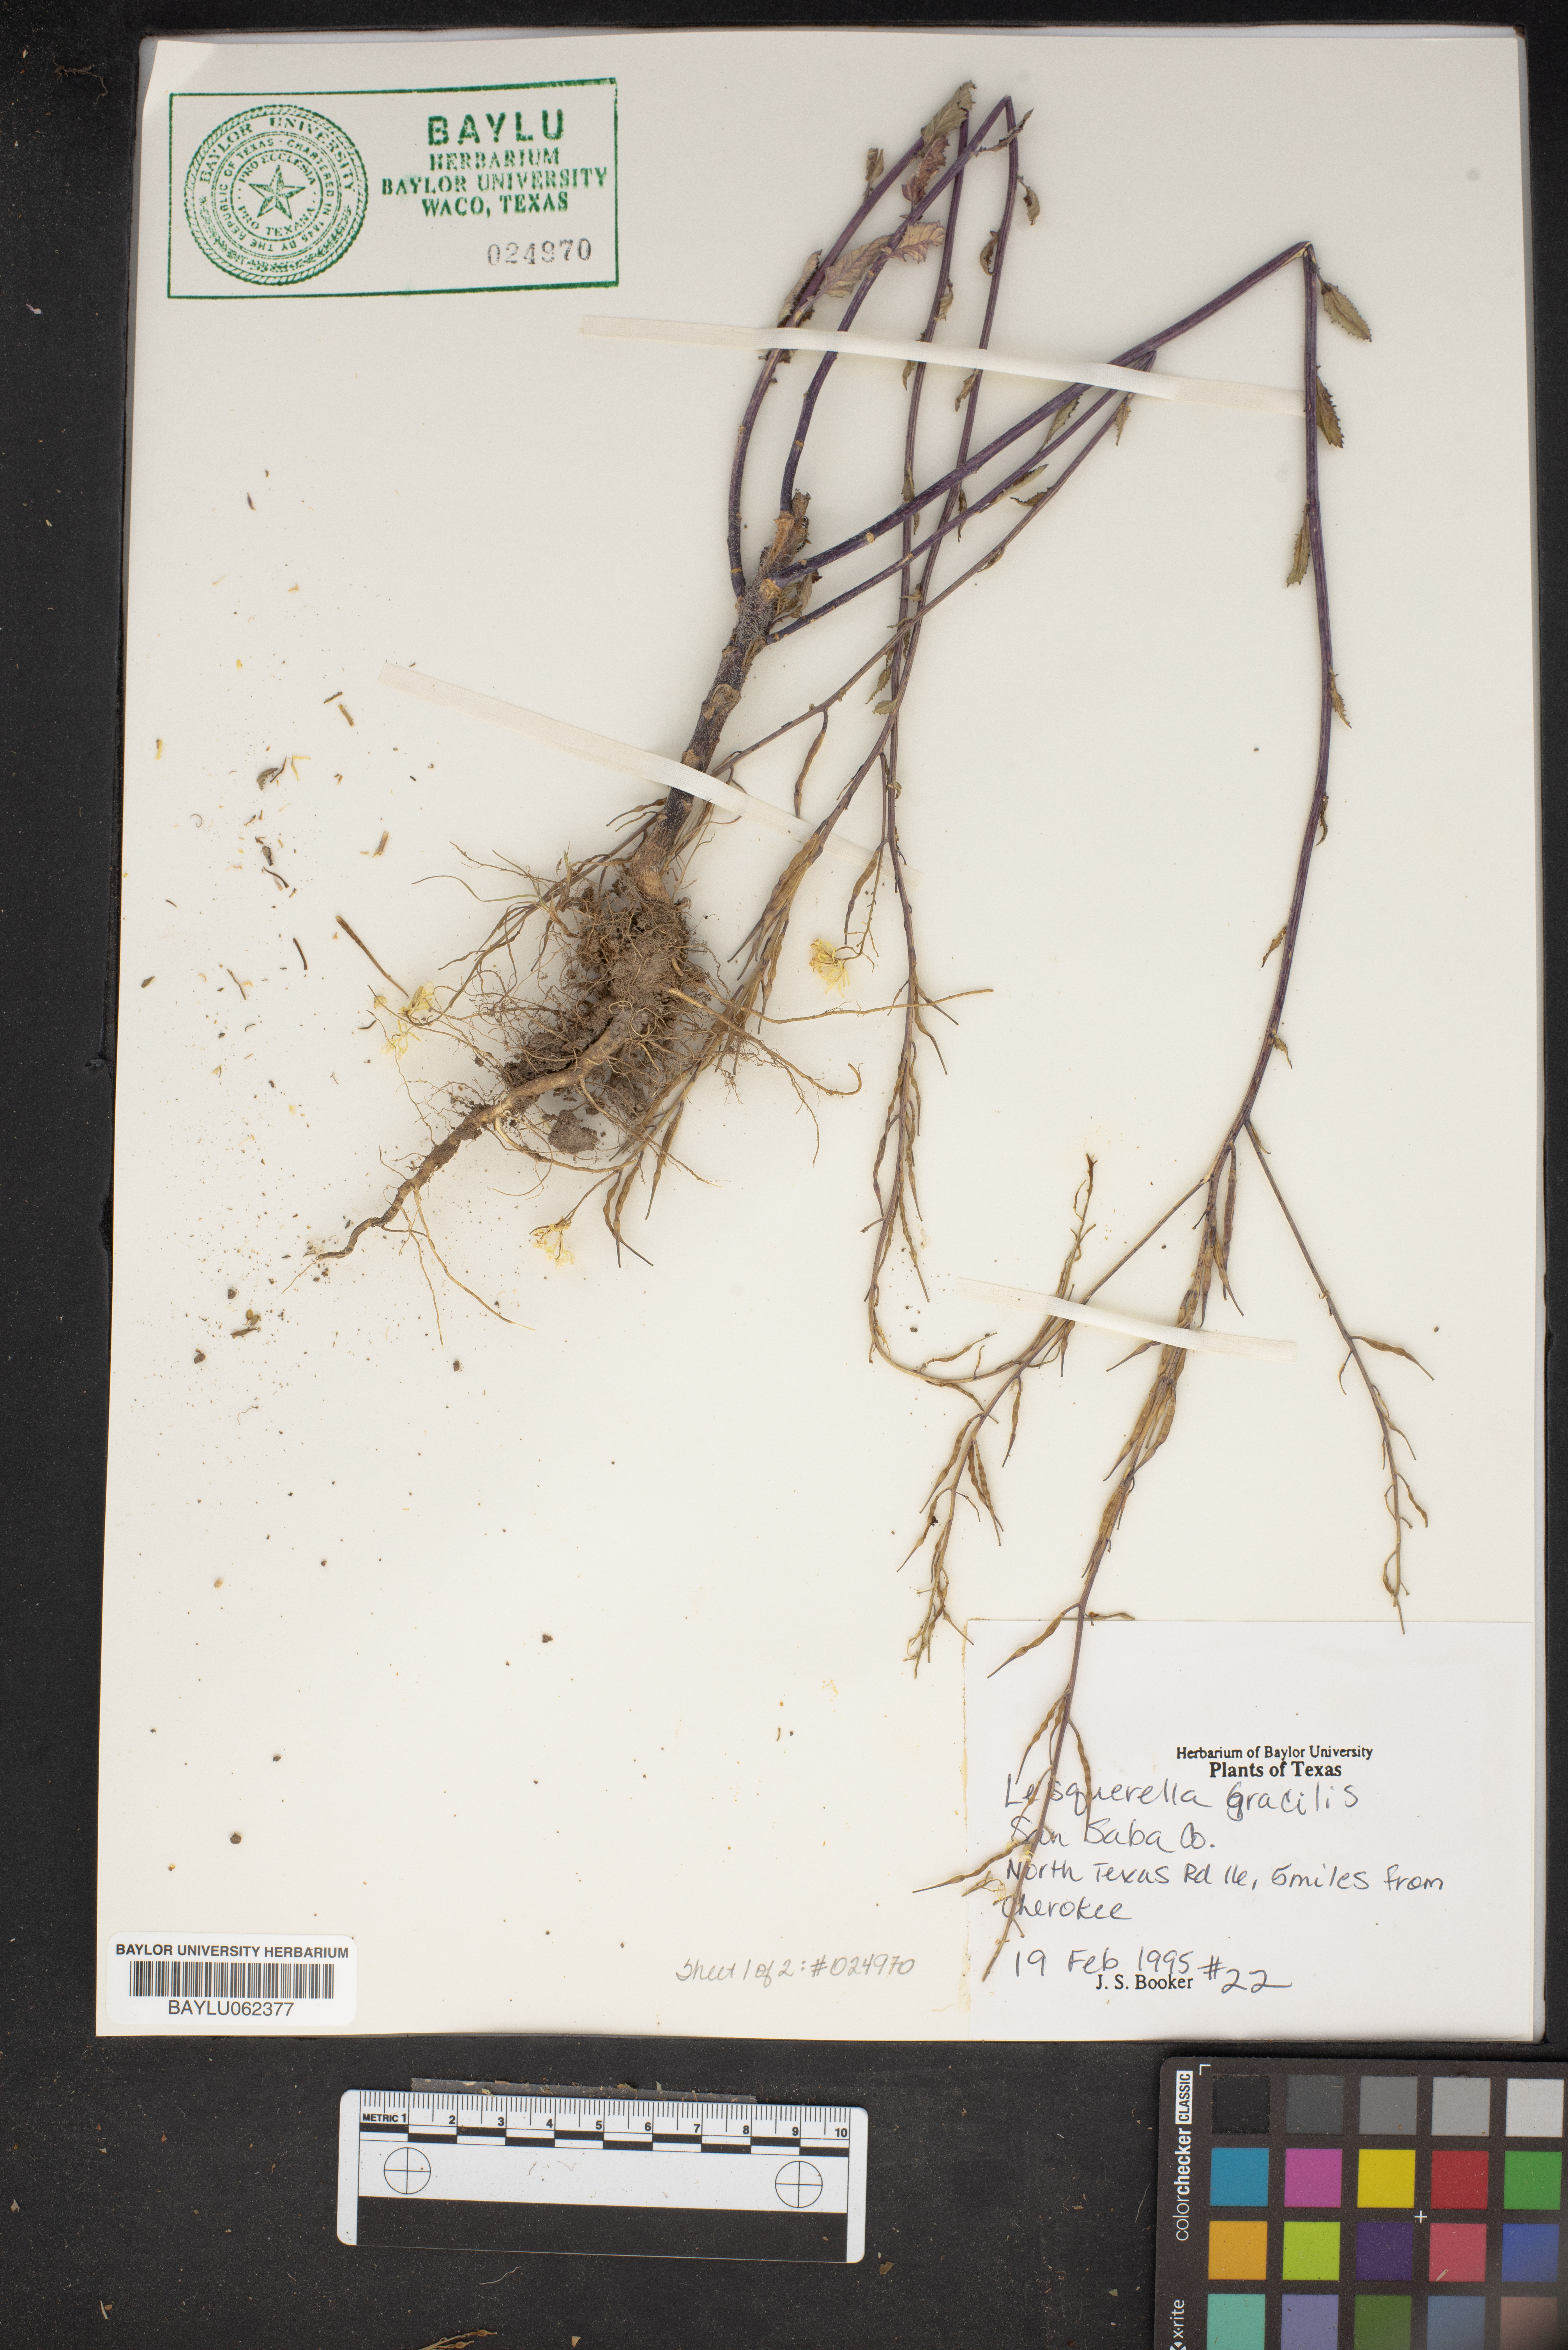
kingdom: Plantae
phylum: Tracheophyta
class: Magnoliopsida
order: Brassicales
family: Brassicaceae
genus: Physaria
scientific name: Physaria gracilis
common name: Spreading bladderpod
